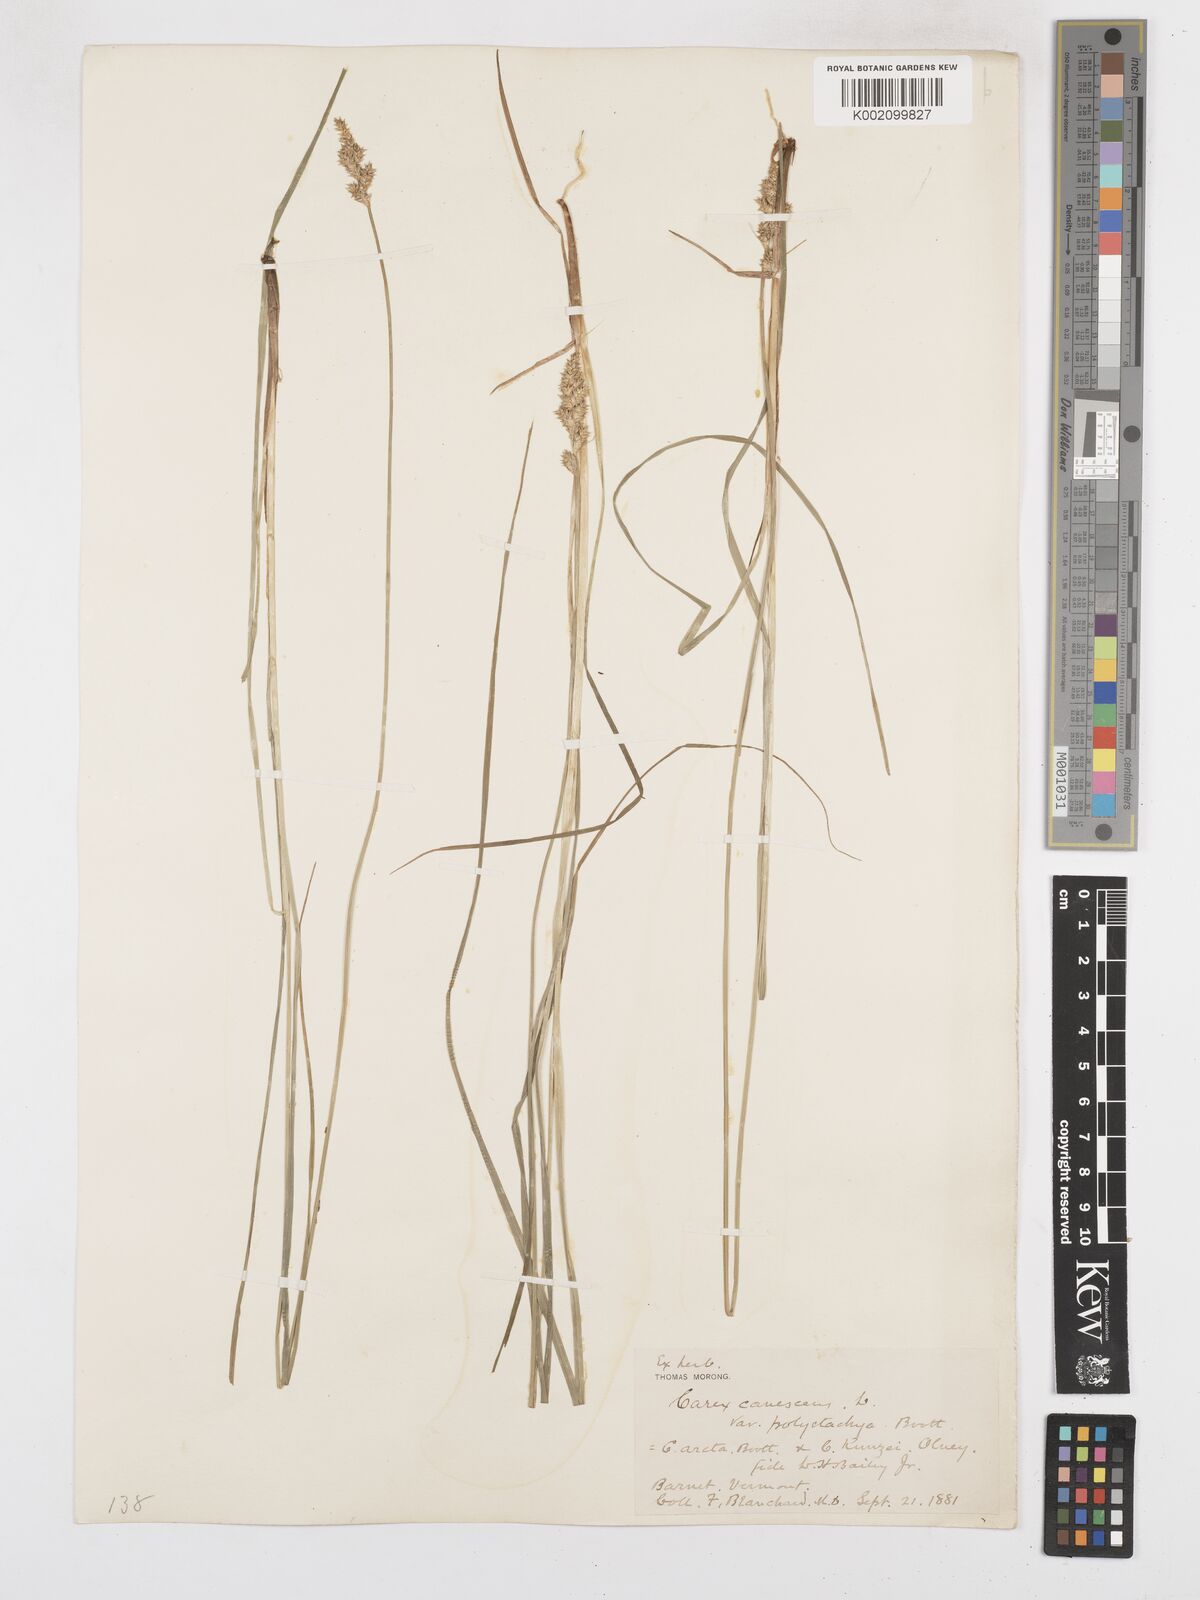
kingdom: Plantae
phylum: Tracheophyta
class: Liliopsida
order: Poales
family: Cyperaceae
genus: Carex
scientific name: Carex curta
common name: White sedge
